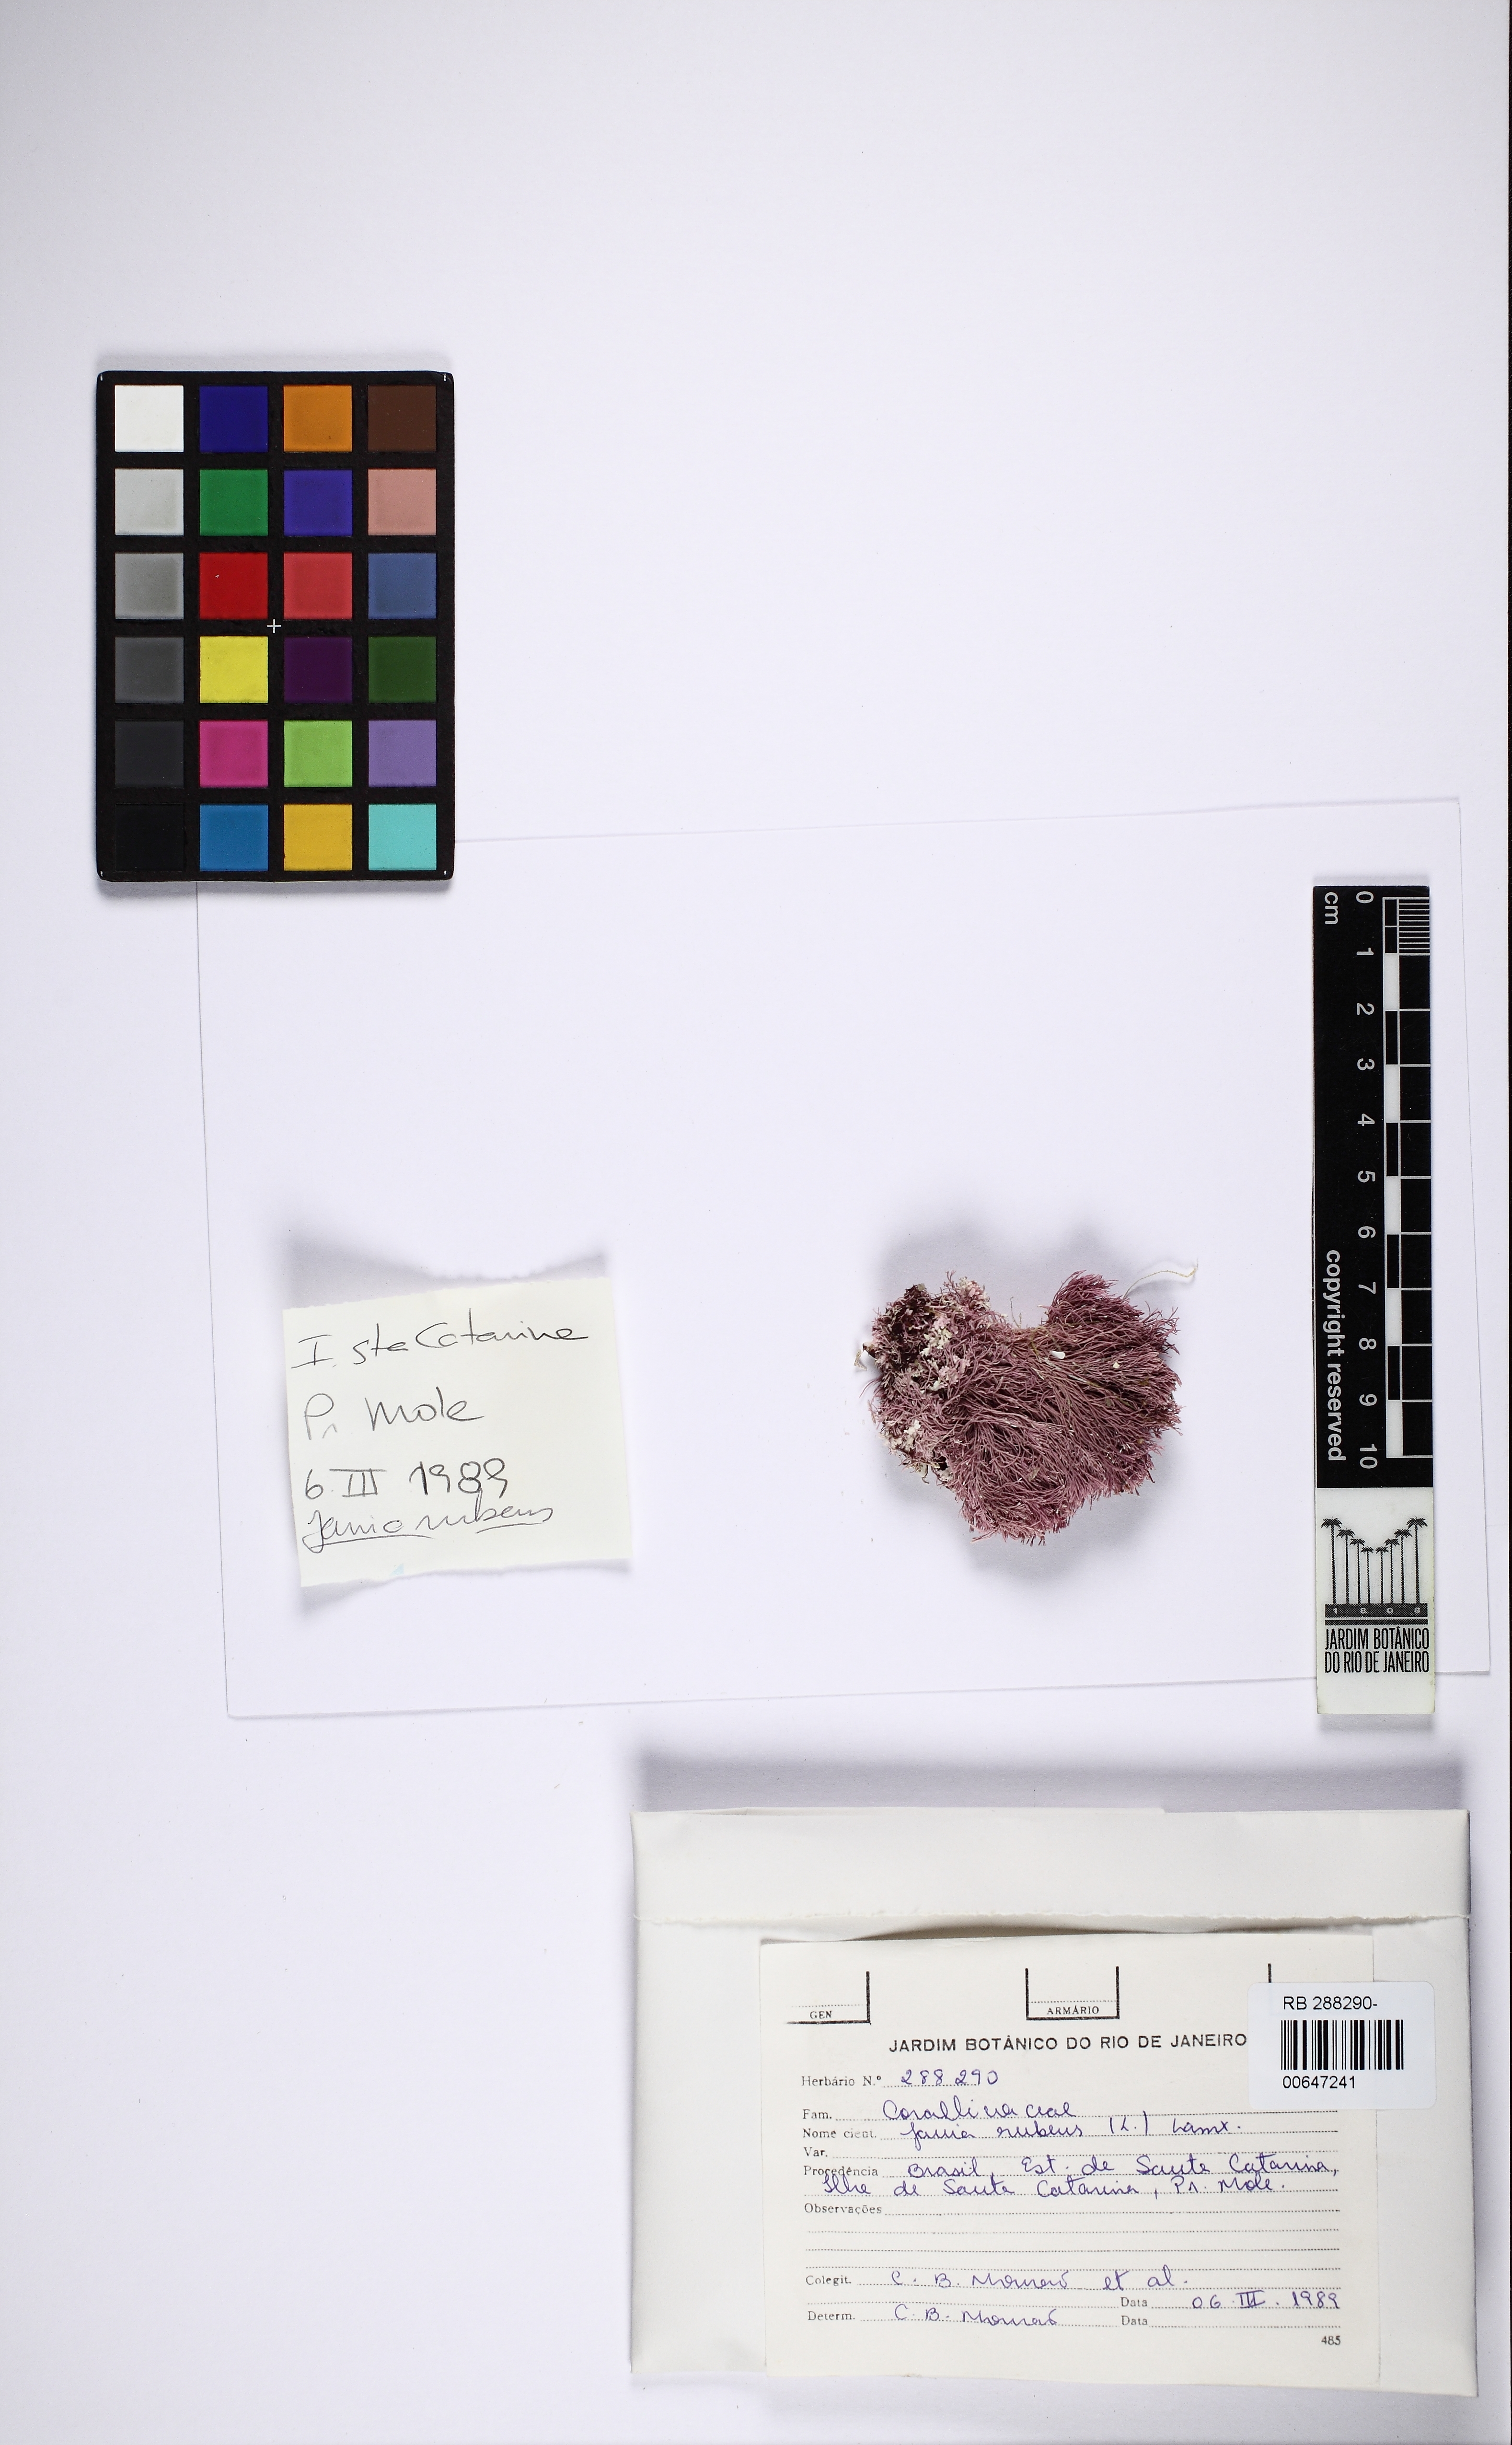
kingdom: Plantae
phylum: Rhodophyta
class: Florideophyceae
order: Corallinales
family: Corallinaceae
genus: Jania
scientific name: Jania rubens
